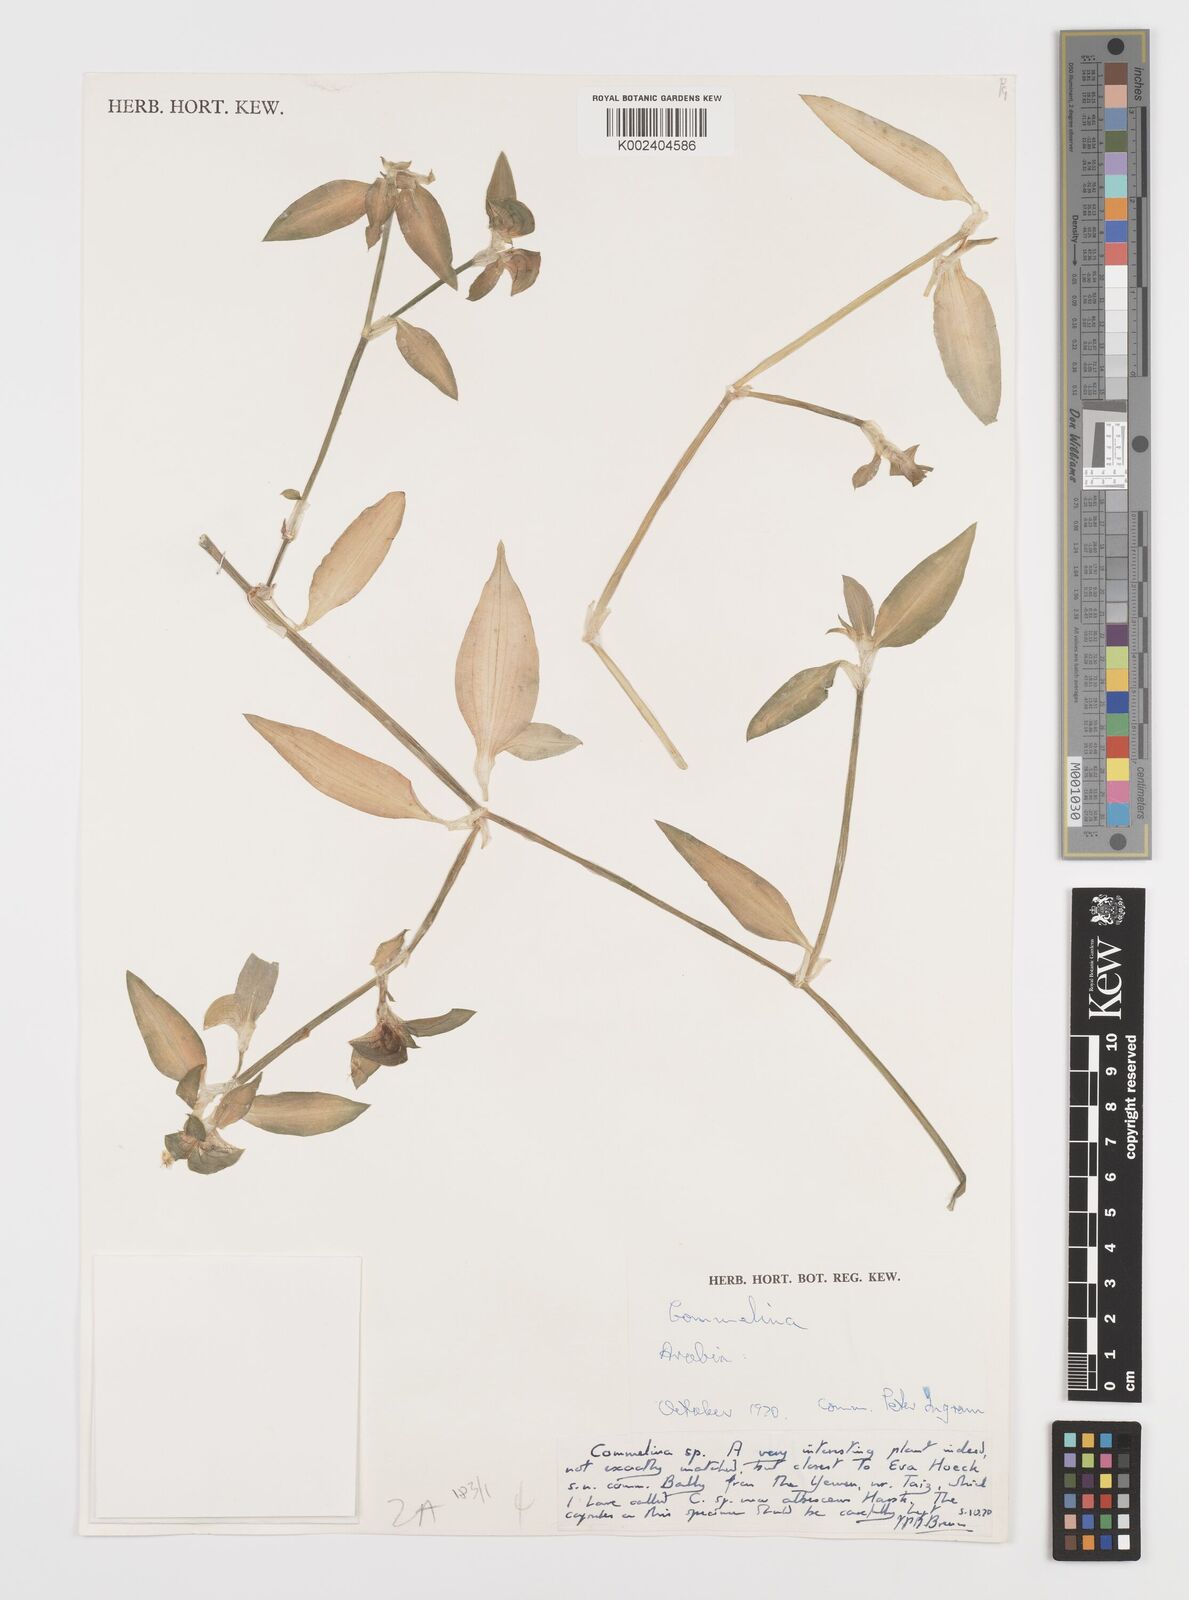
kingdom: Plantae
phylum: Tracheophyta
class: Liliopsida
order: Commelinales
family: Commelinaceae
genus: Commelina
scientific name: Commelina albescens
